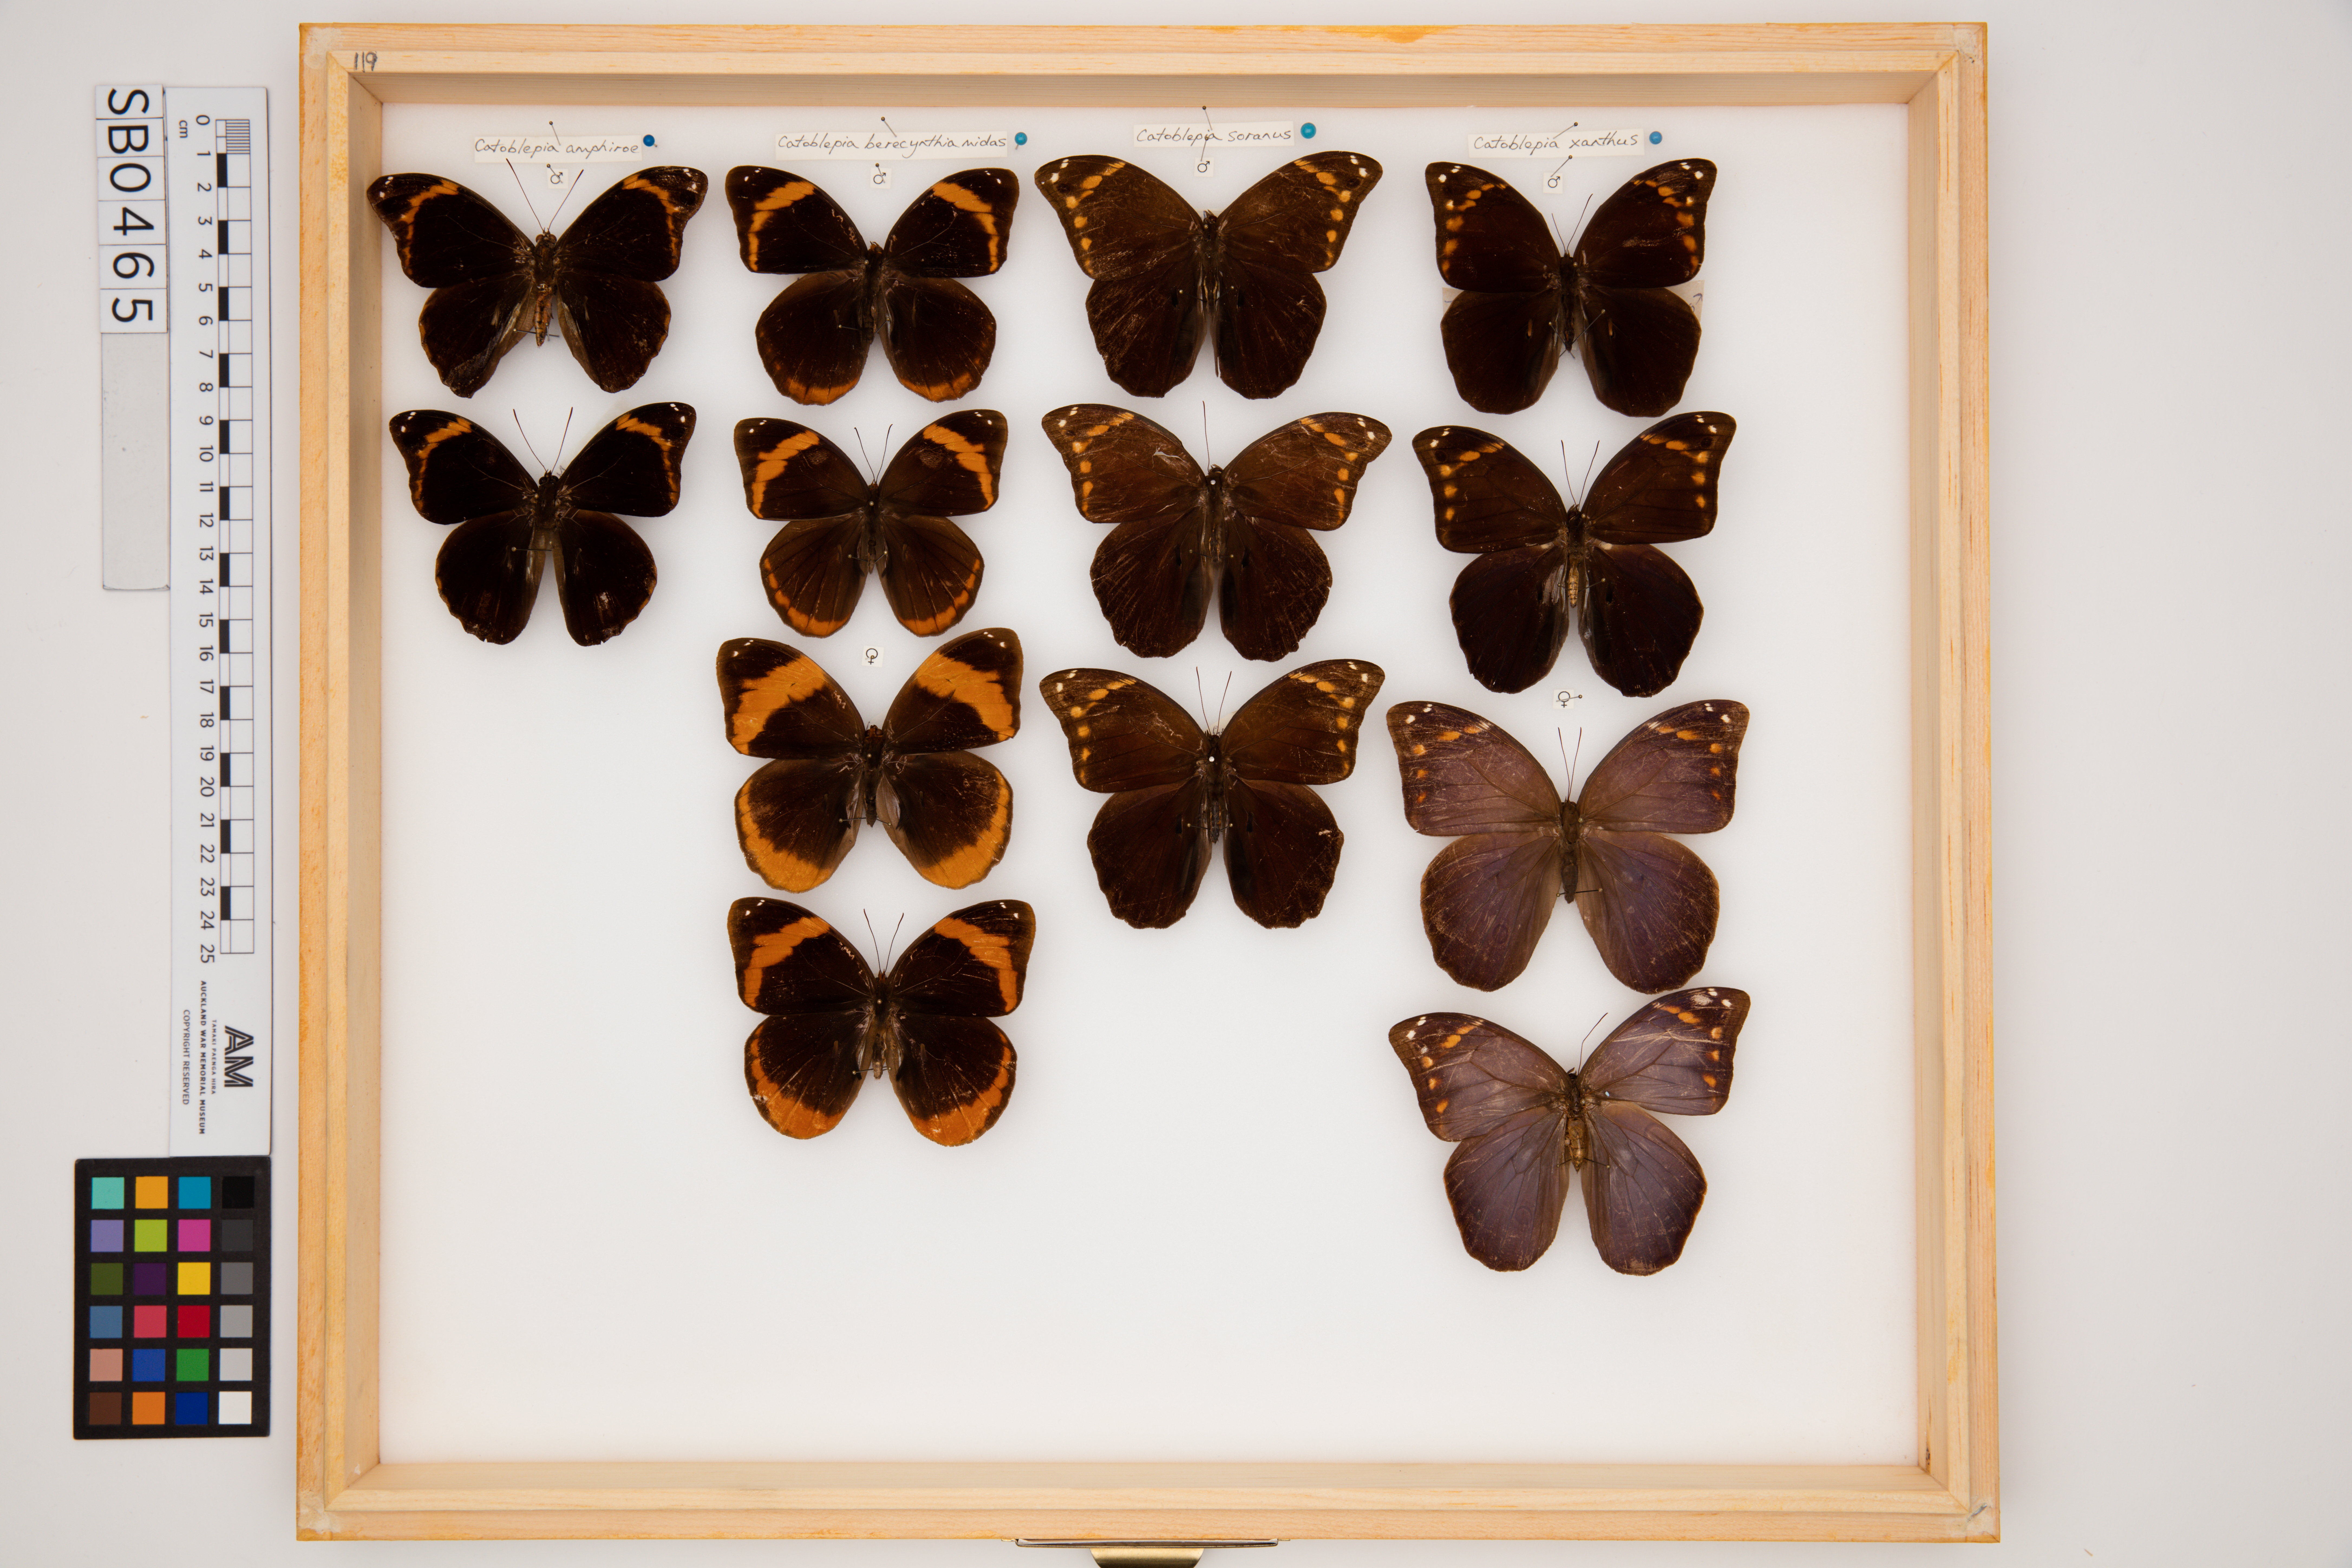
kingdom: Animalia
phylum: Arthropoda
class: Insecta
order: Lepidoptera
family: Nymphalidae
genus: Catoblepia
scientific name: Catoblepia xanthus
